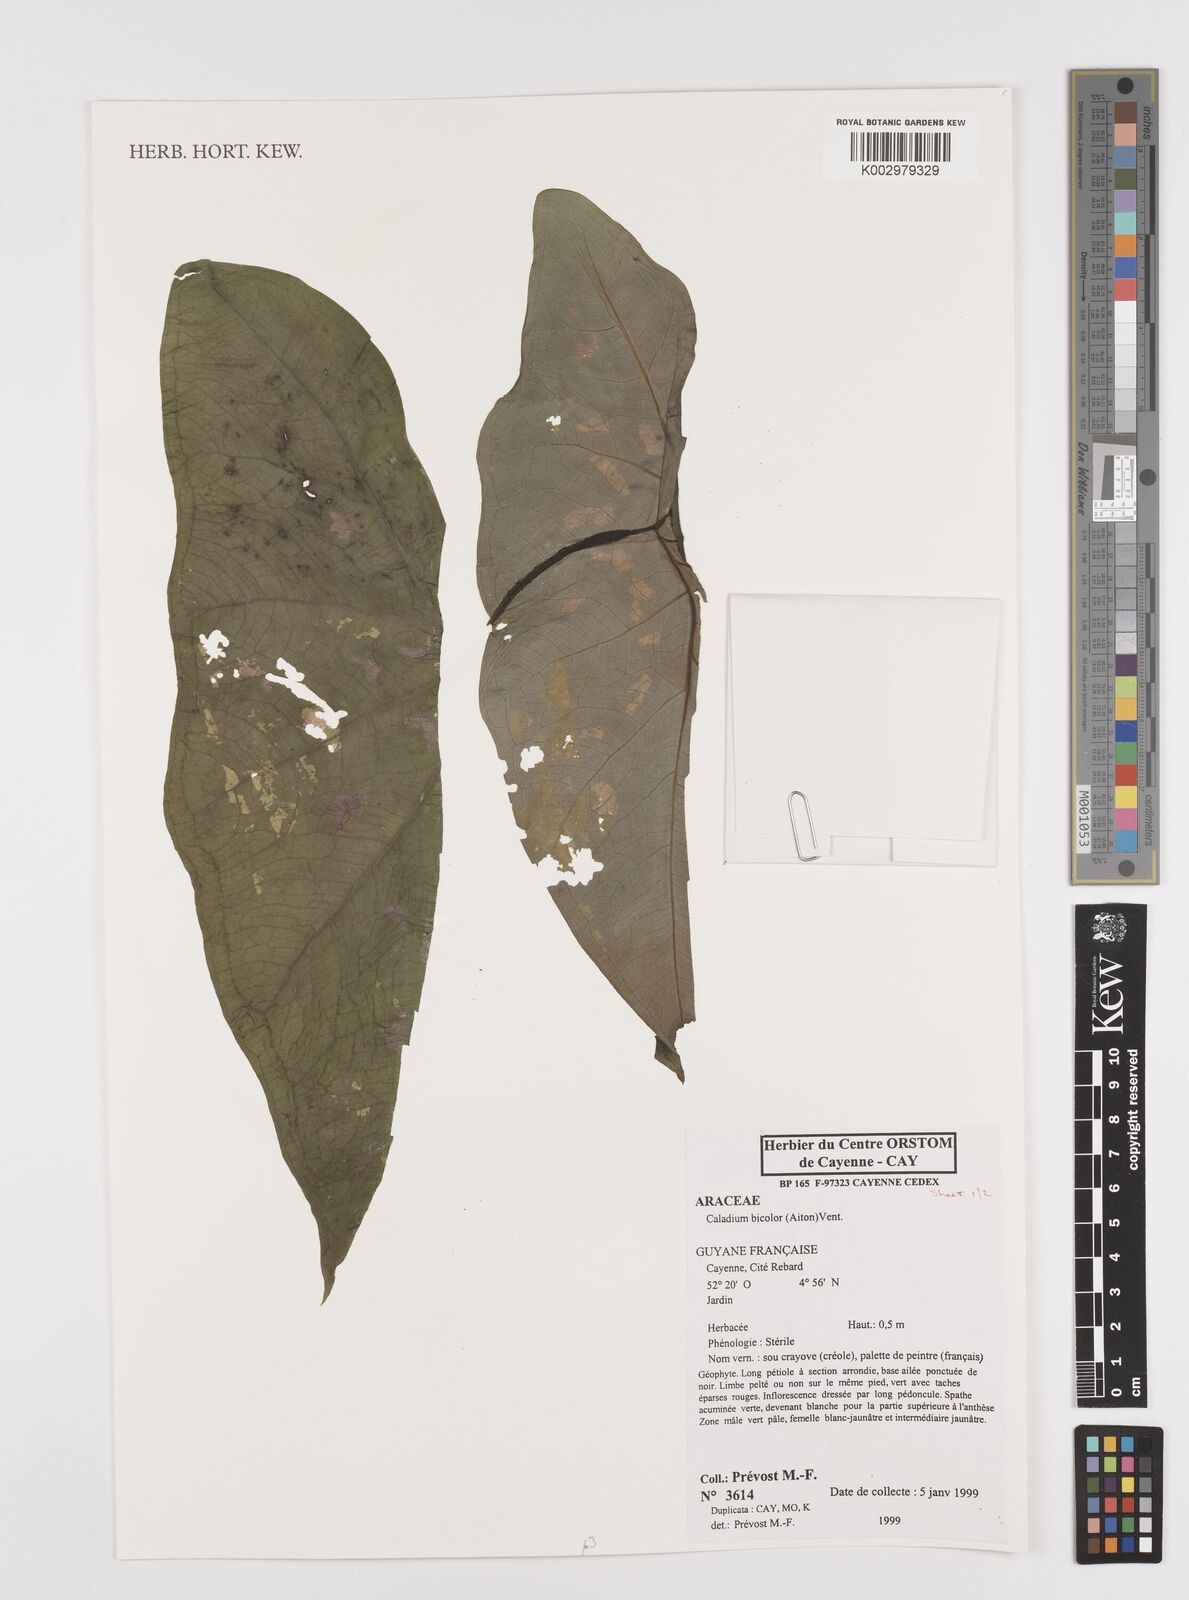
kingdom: Plantae
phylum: Tracheophyta
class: Liliopsida
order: Alismatales
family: Araceae
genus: Caladium
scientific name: Caladium bicolor
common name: Artist's pallet
